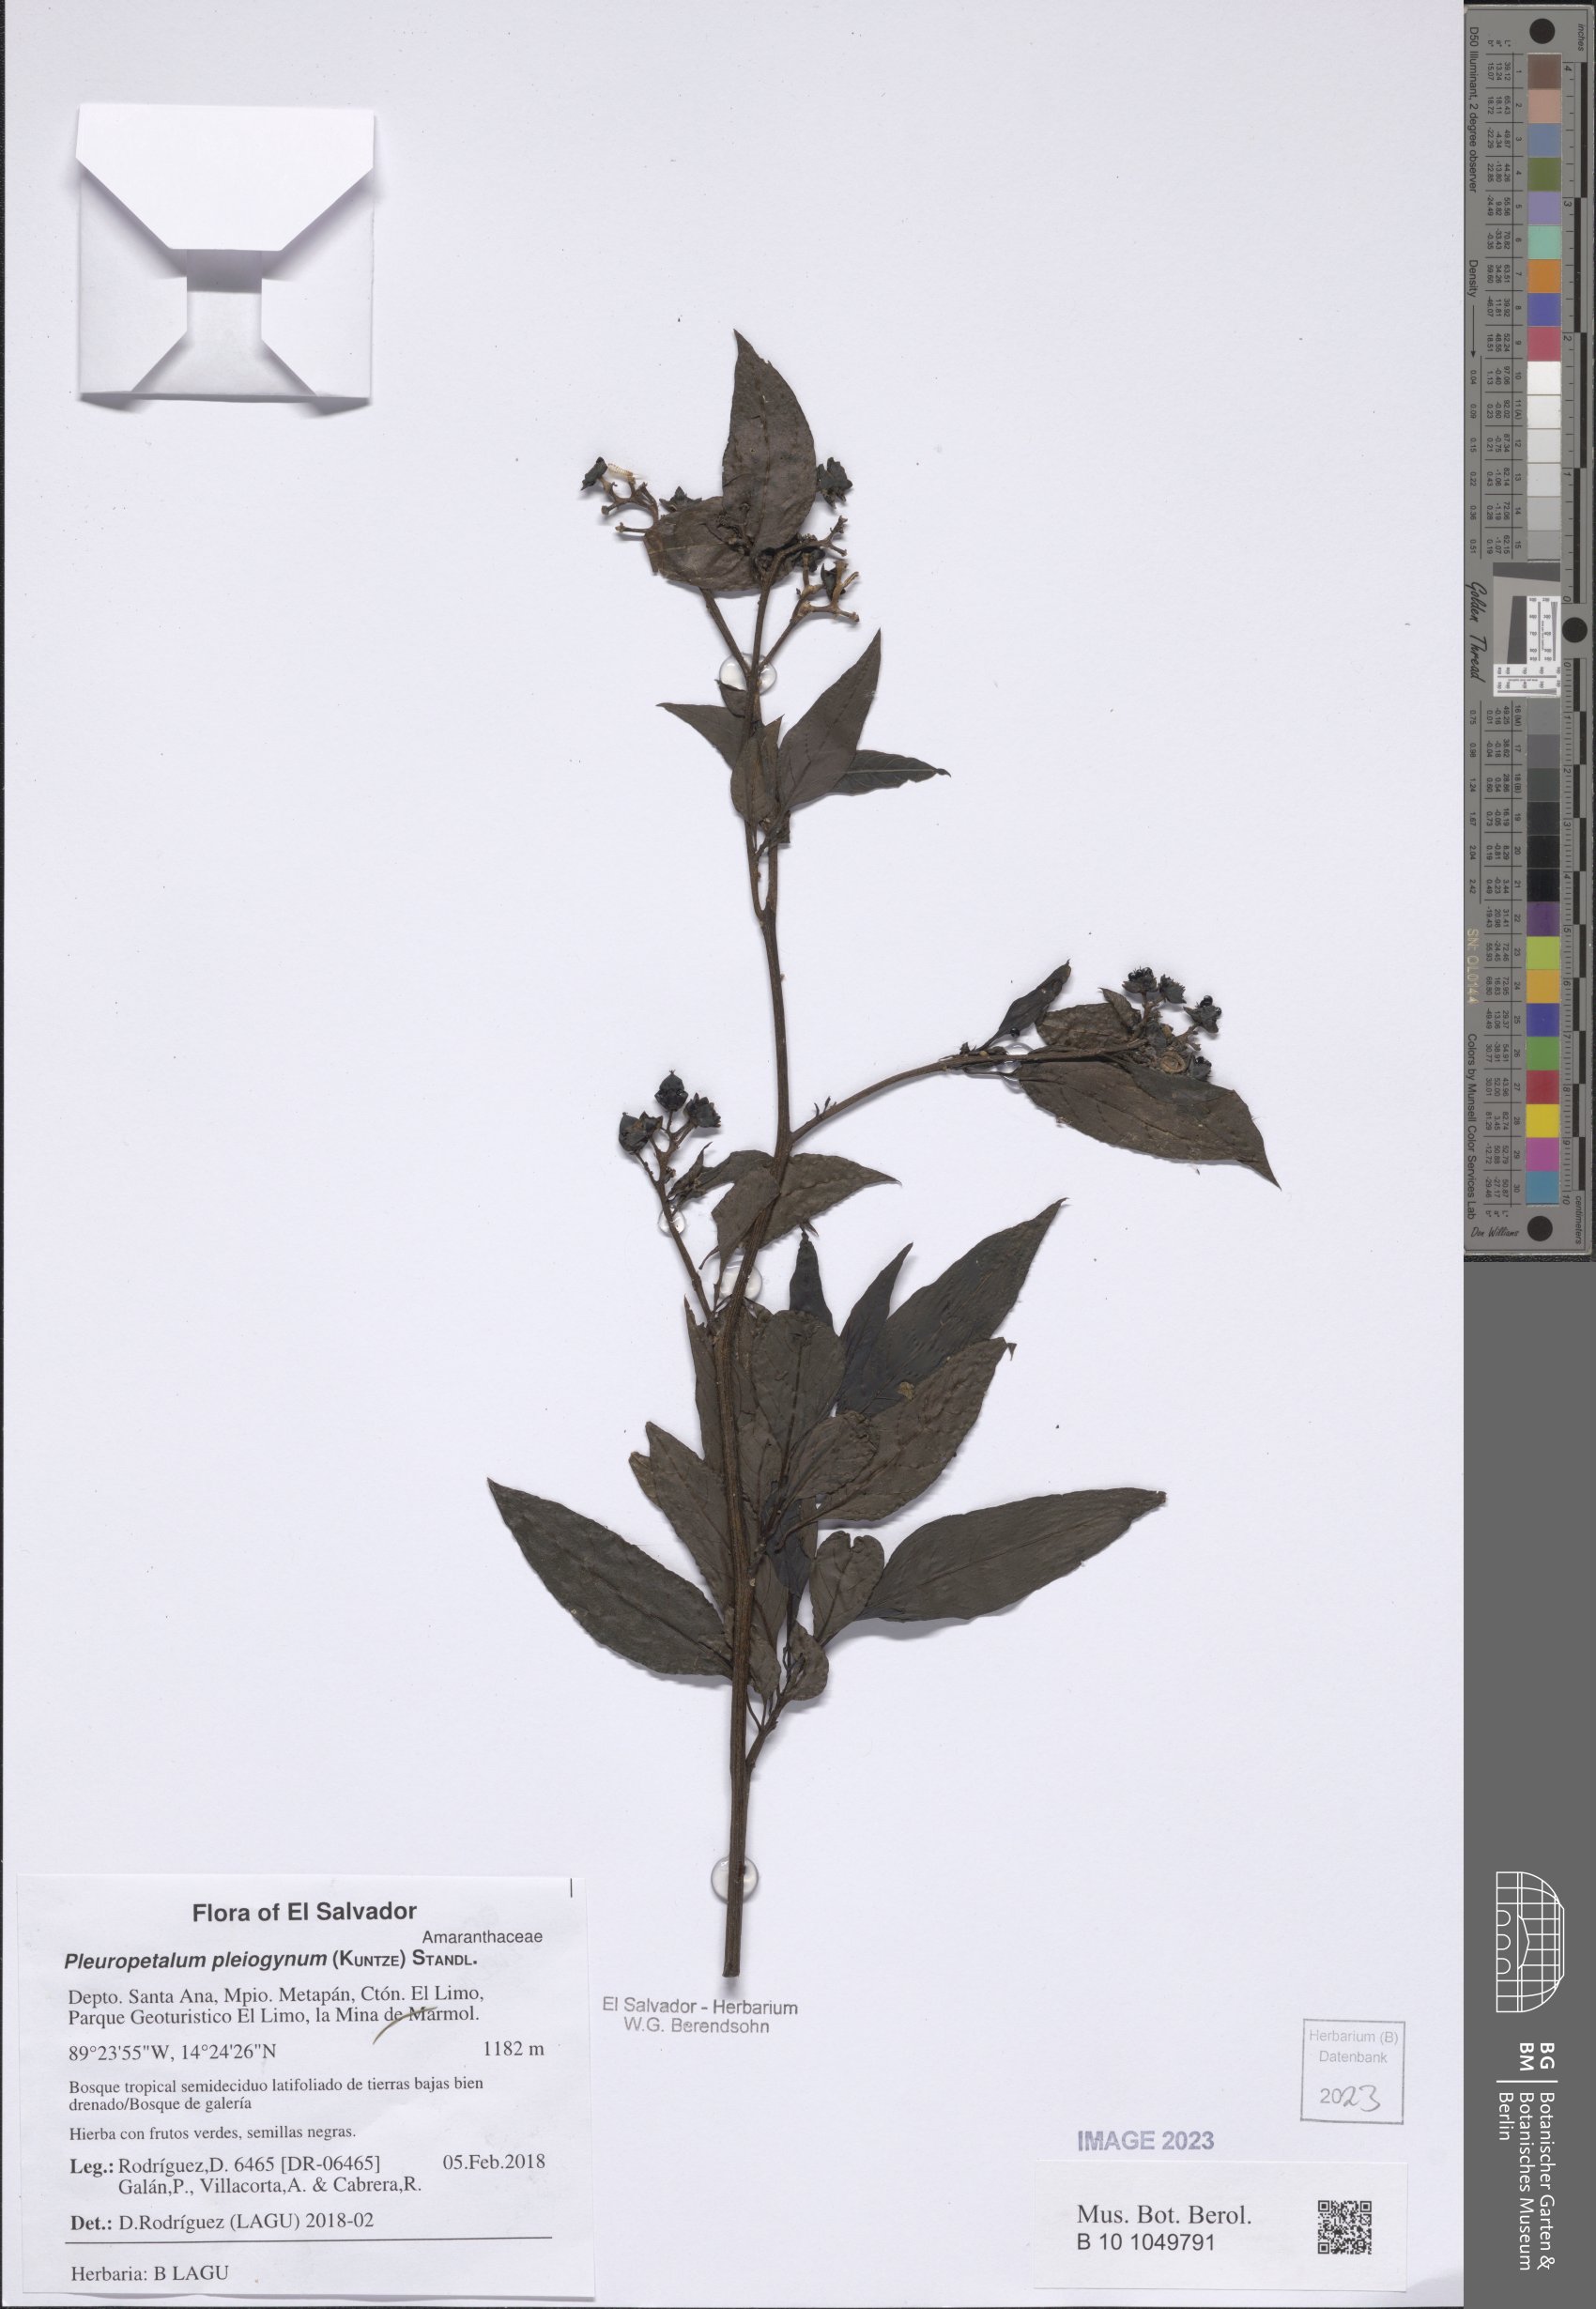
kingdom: Plantae
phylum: Tracheophyta
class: Magnoliopsida
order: Caryophyllales
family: Amaranthaceae
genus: Pleuropetalum
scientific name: Pleuropetalum pleiogynum
